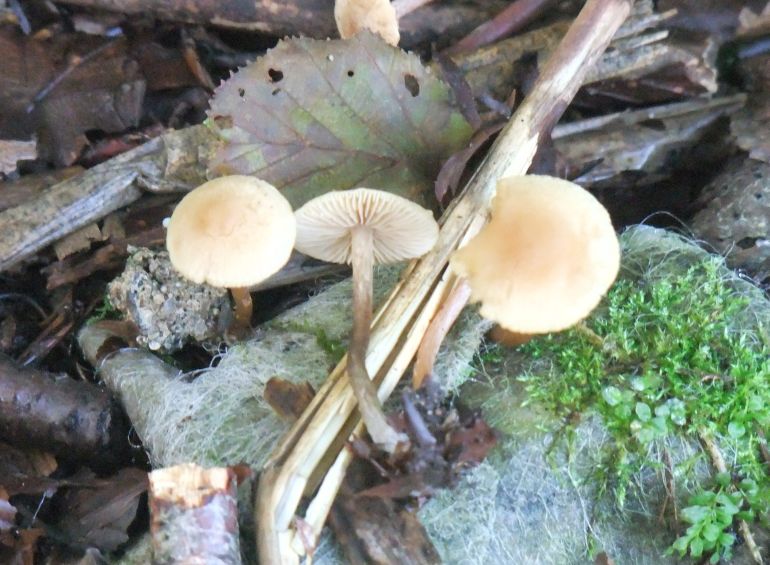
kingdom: Fungi
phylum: Basidiomycota
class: Agaricomycetes
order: Agaricales
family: Hymenogastraceae
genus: Naucoria
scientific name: Naucoria escharioides
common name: lys elle-knaphat
